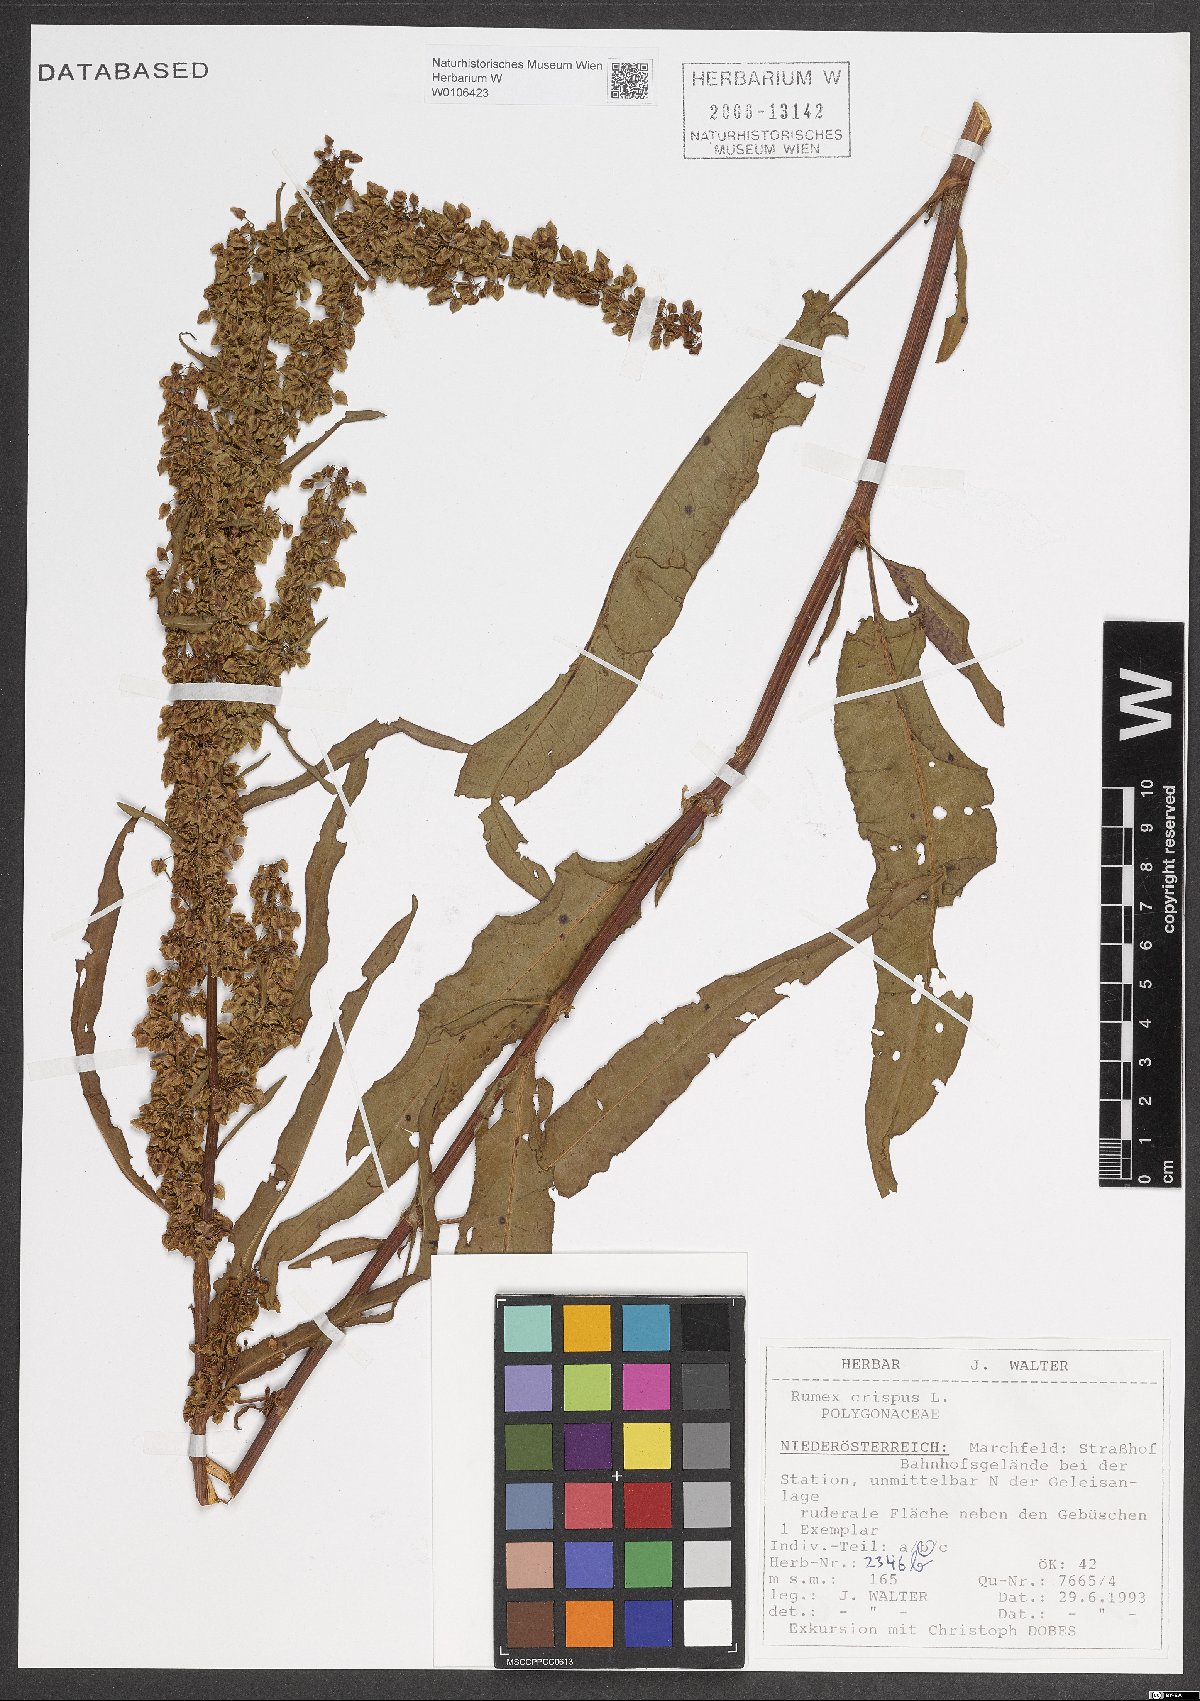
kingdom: Plantae
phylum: Tracheophyta
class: Magnoliopsida
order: Caryophyllales
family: Polygonaceae
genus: Rumex
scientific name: Rumex crispus
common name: Curled dock
